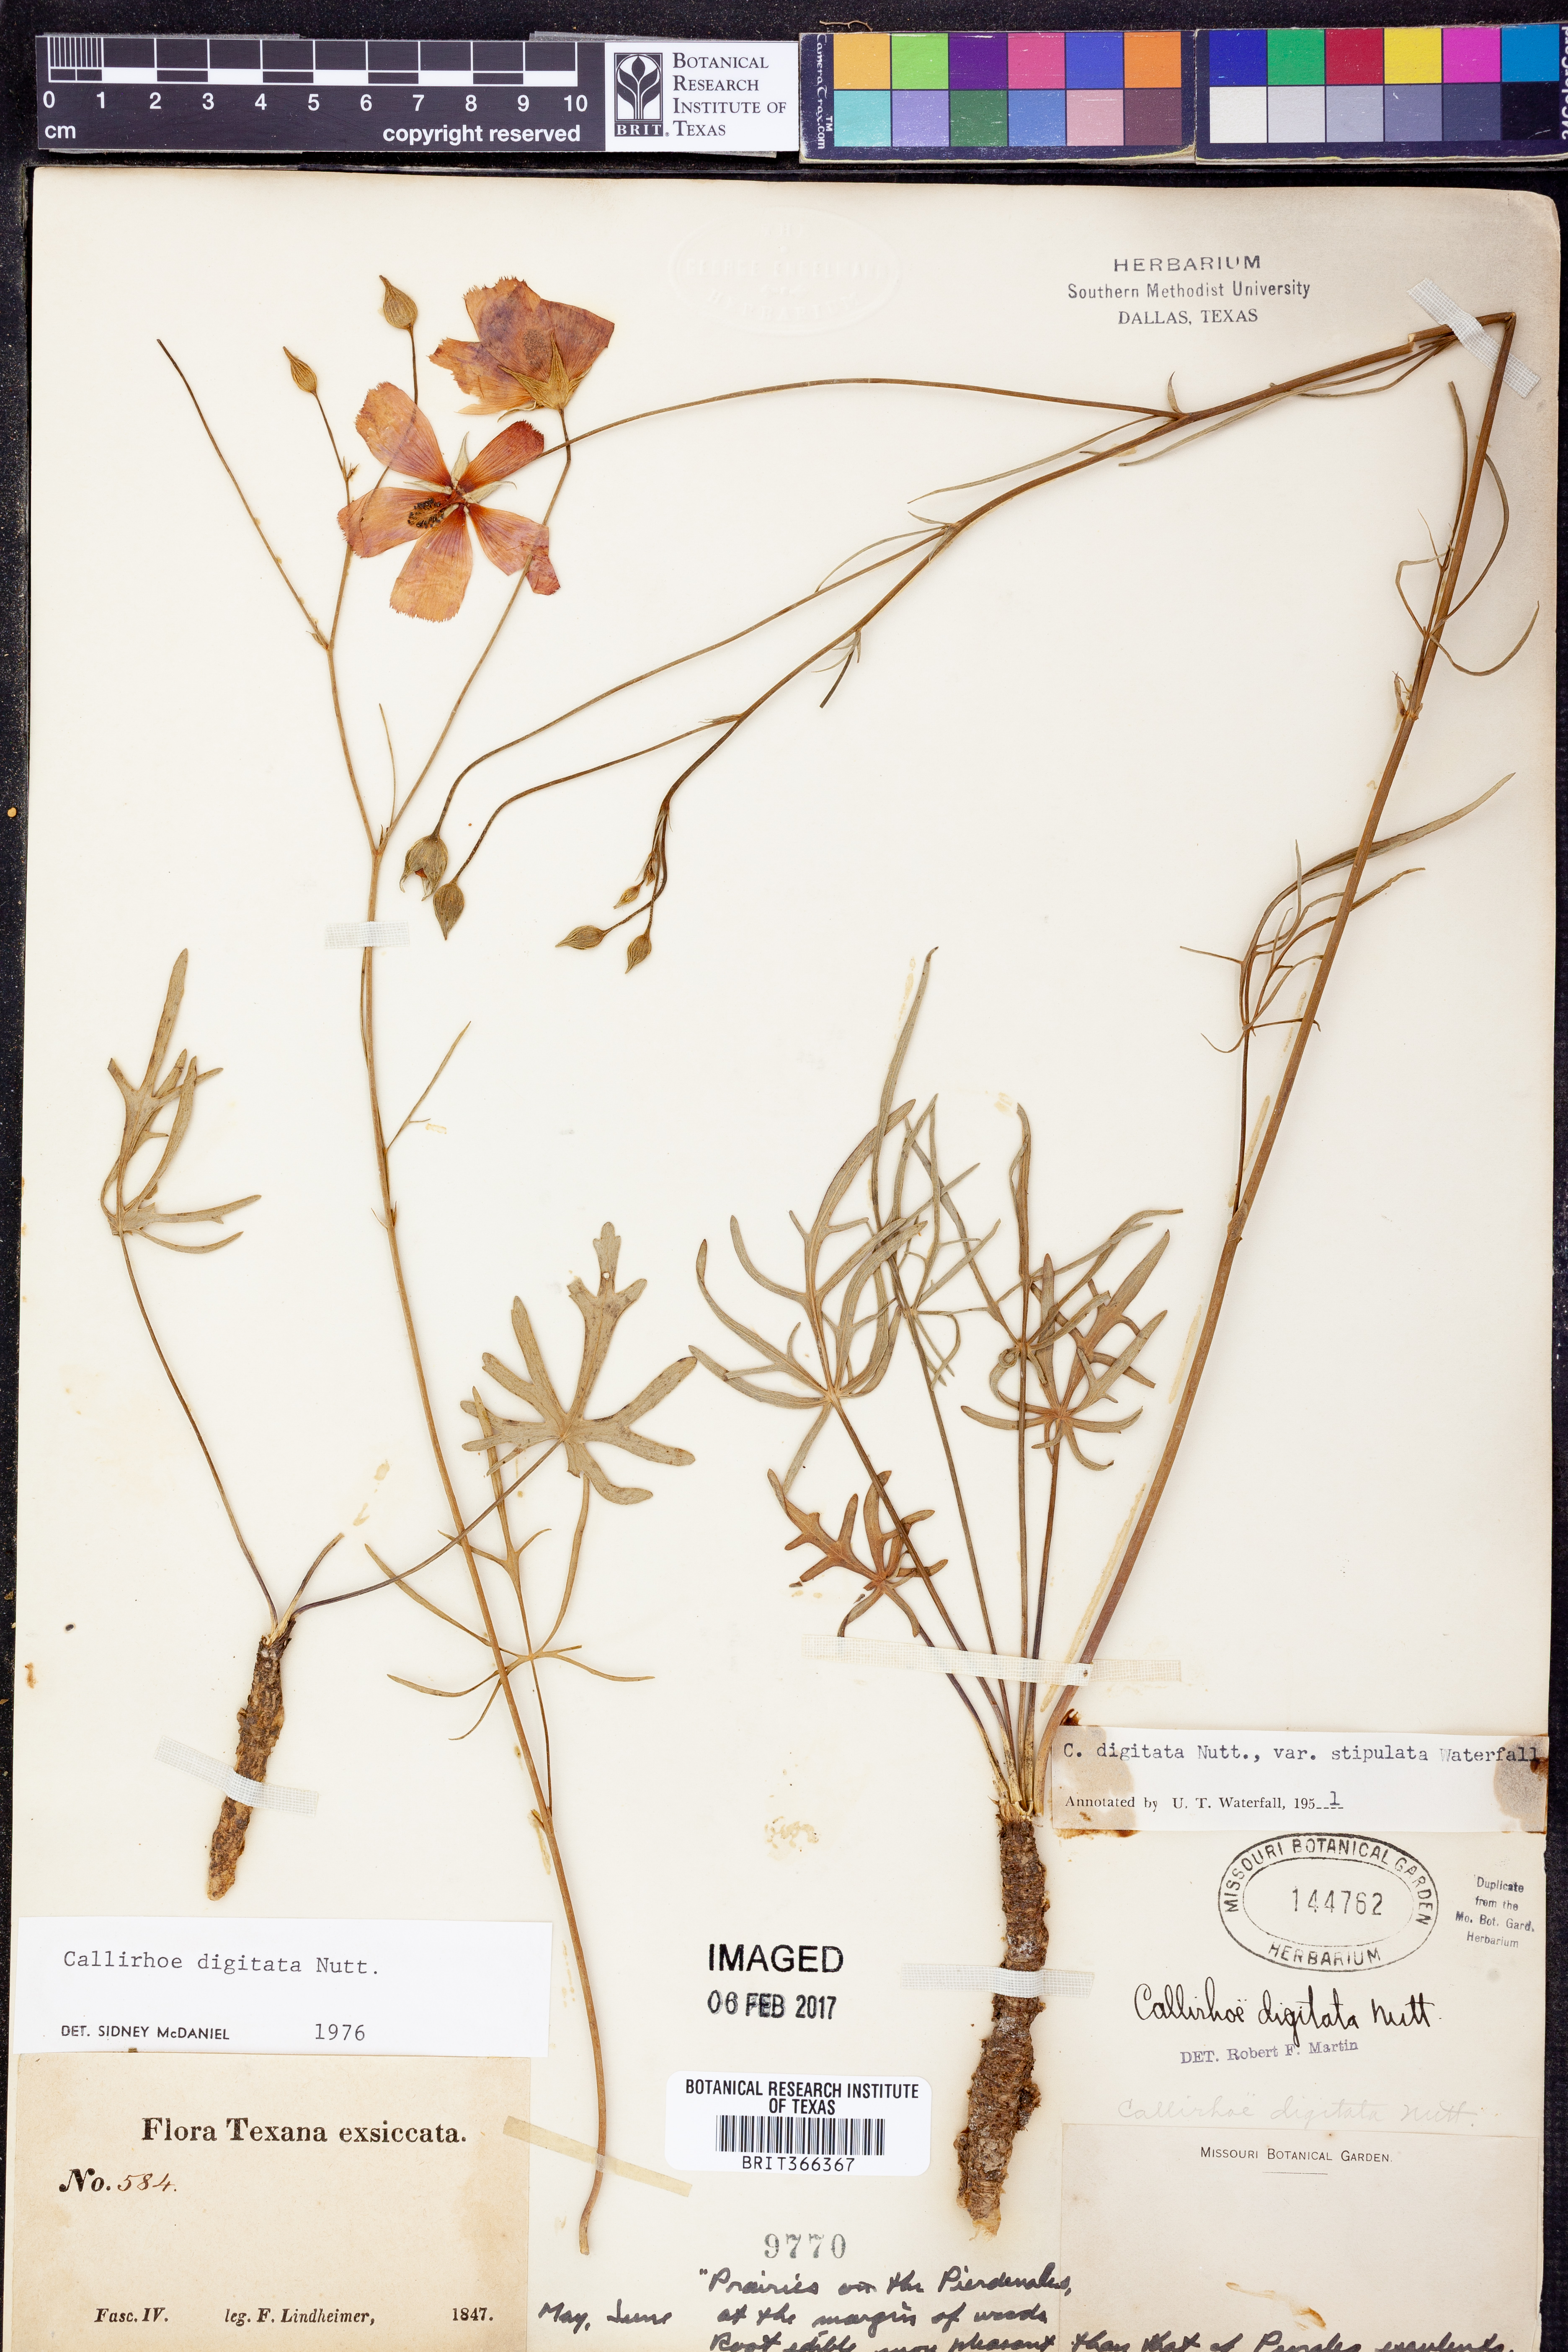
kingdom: Plantae
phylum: Tracheophyta
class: Magnoliopsida
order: Malvales
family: Malvaceae
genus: Callirhoe
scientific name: Callirhoe digitata
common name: Finger poppy-mallow
